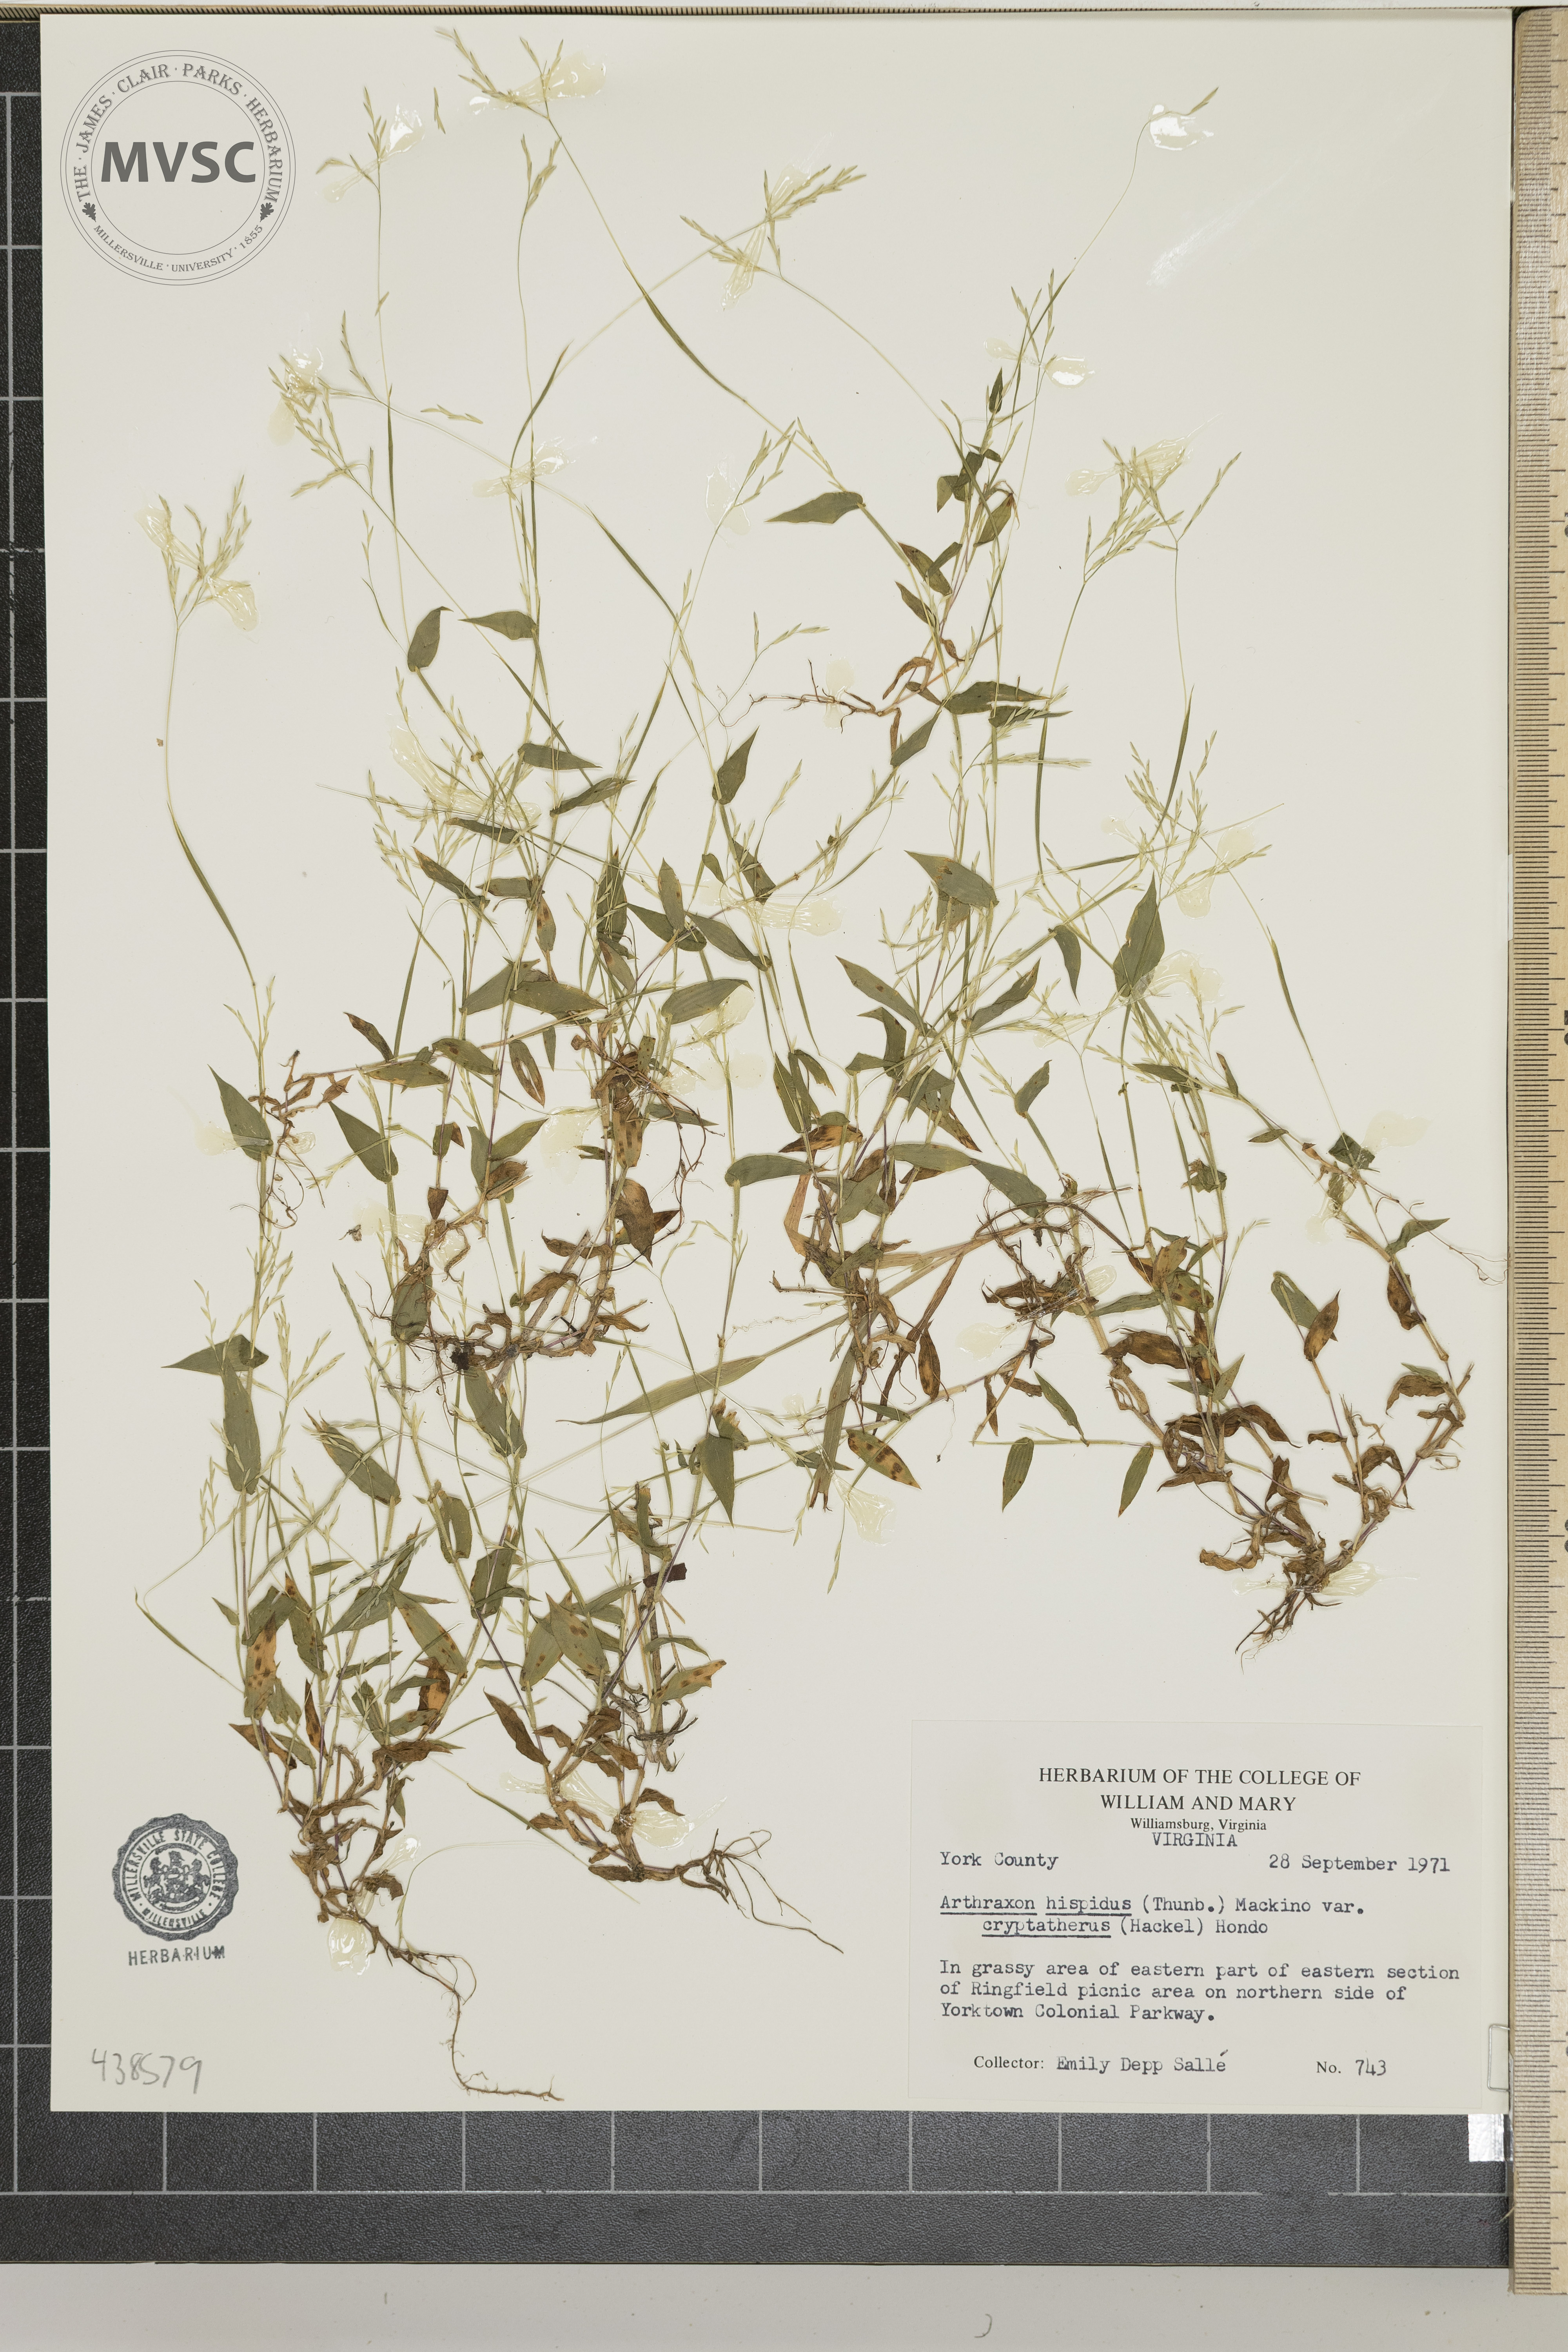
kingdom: Plantae
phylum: Tracheophyta
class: Liliopsida
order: Poales
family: Poaceae
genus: Arthraxon
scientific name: Arthraxon hispidus
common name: Small carpgrass
